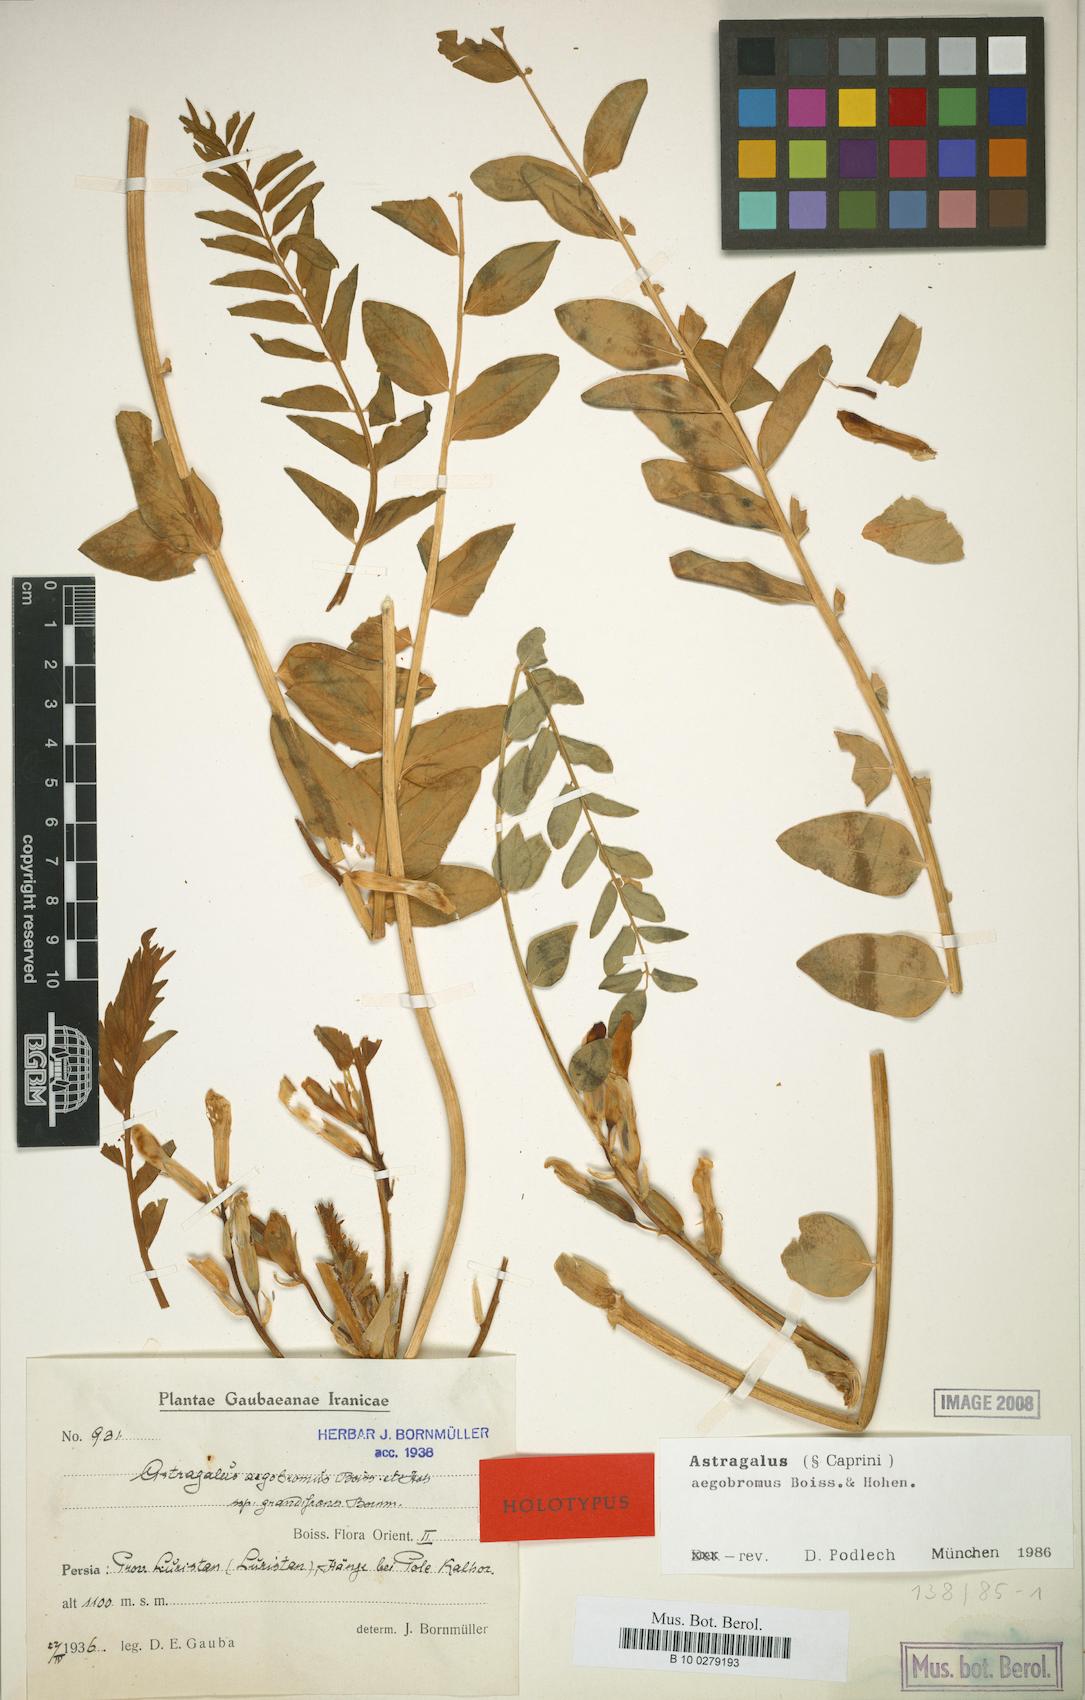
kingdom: Plantae
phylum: Tracheophyta
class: Magnoliopsida
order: Fabales
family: Fabaceae
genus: Astragalus
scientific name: Astragalus aegobromus
